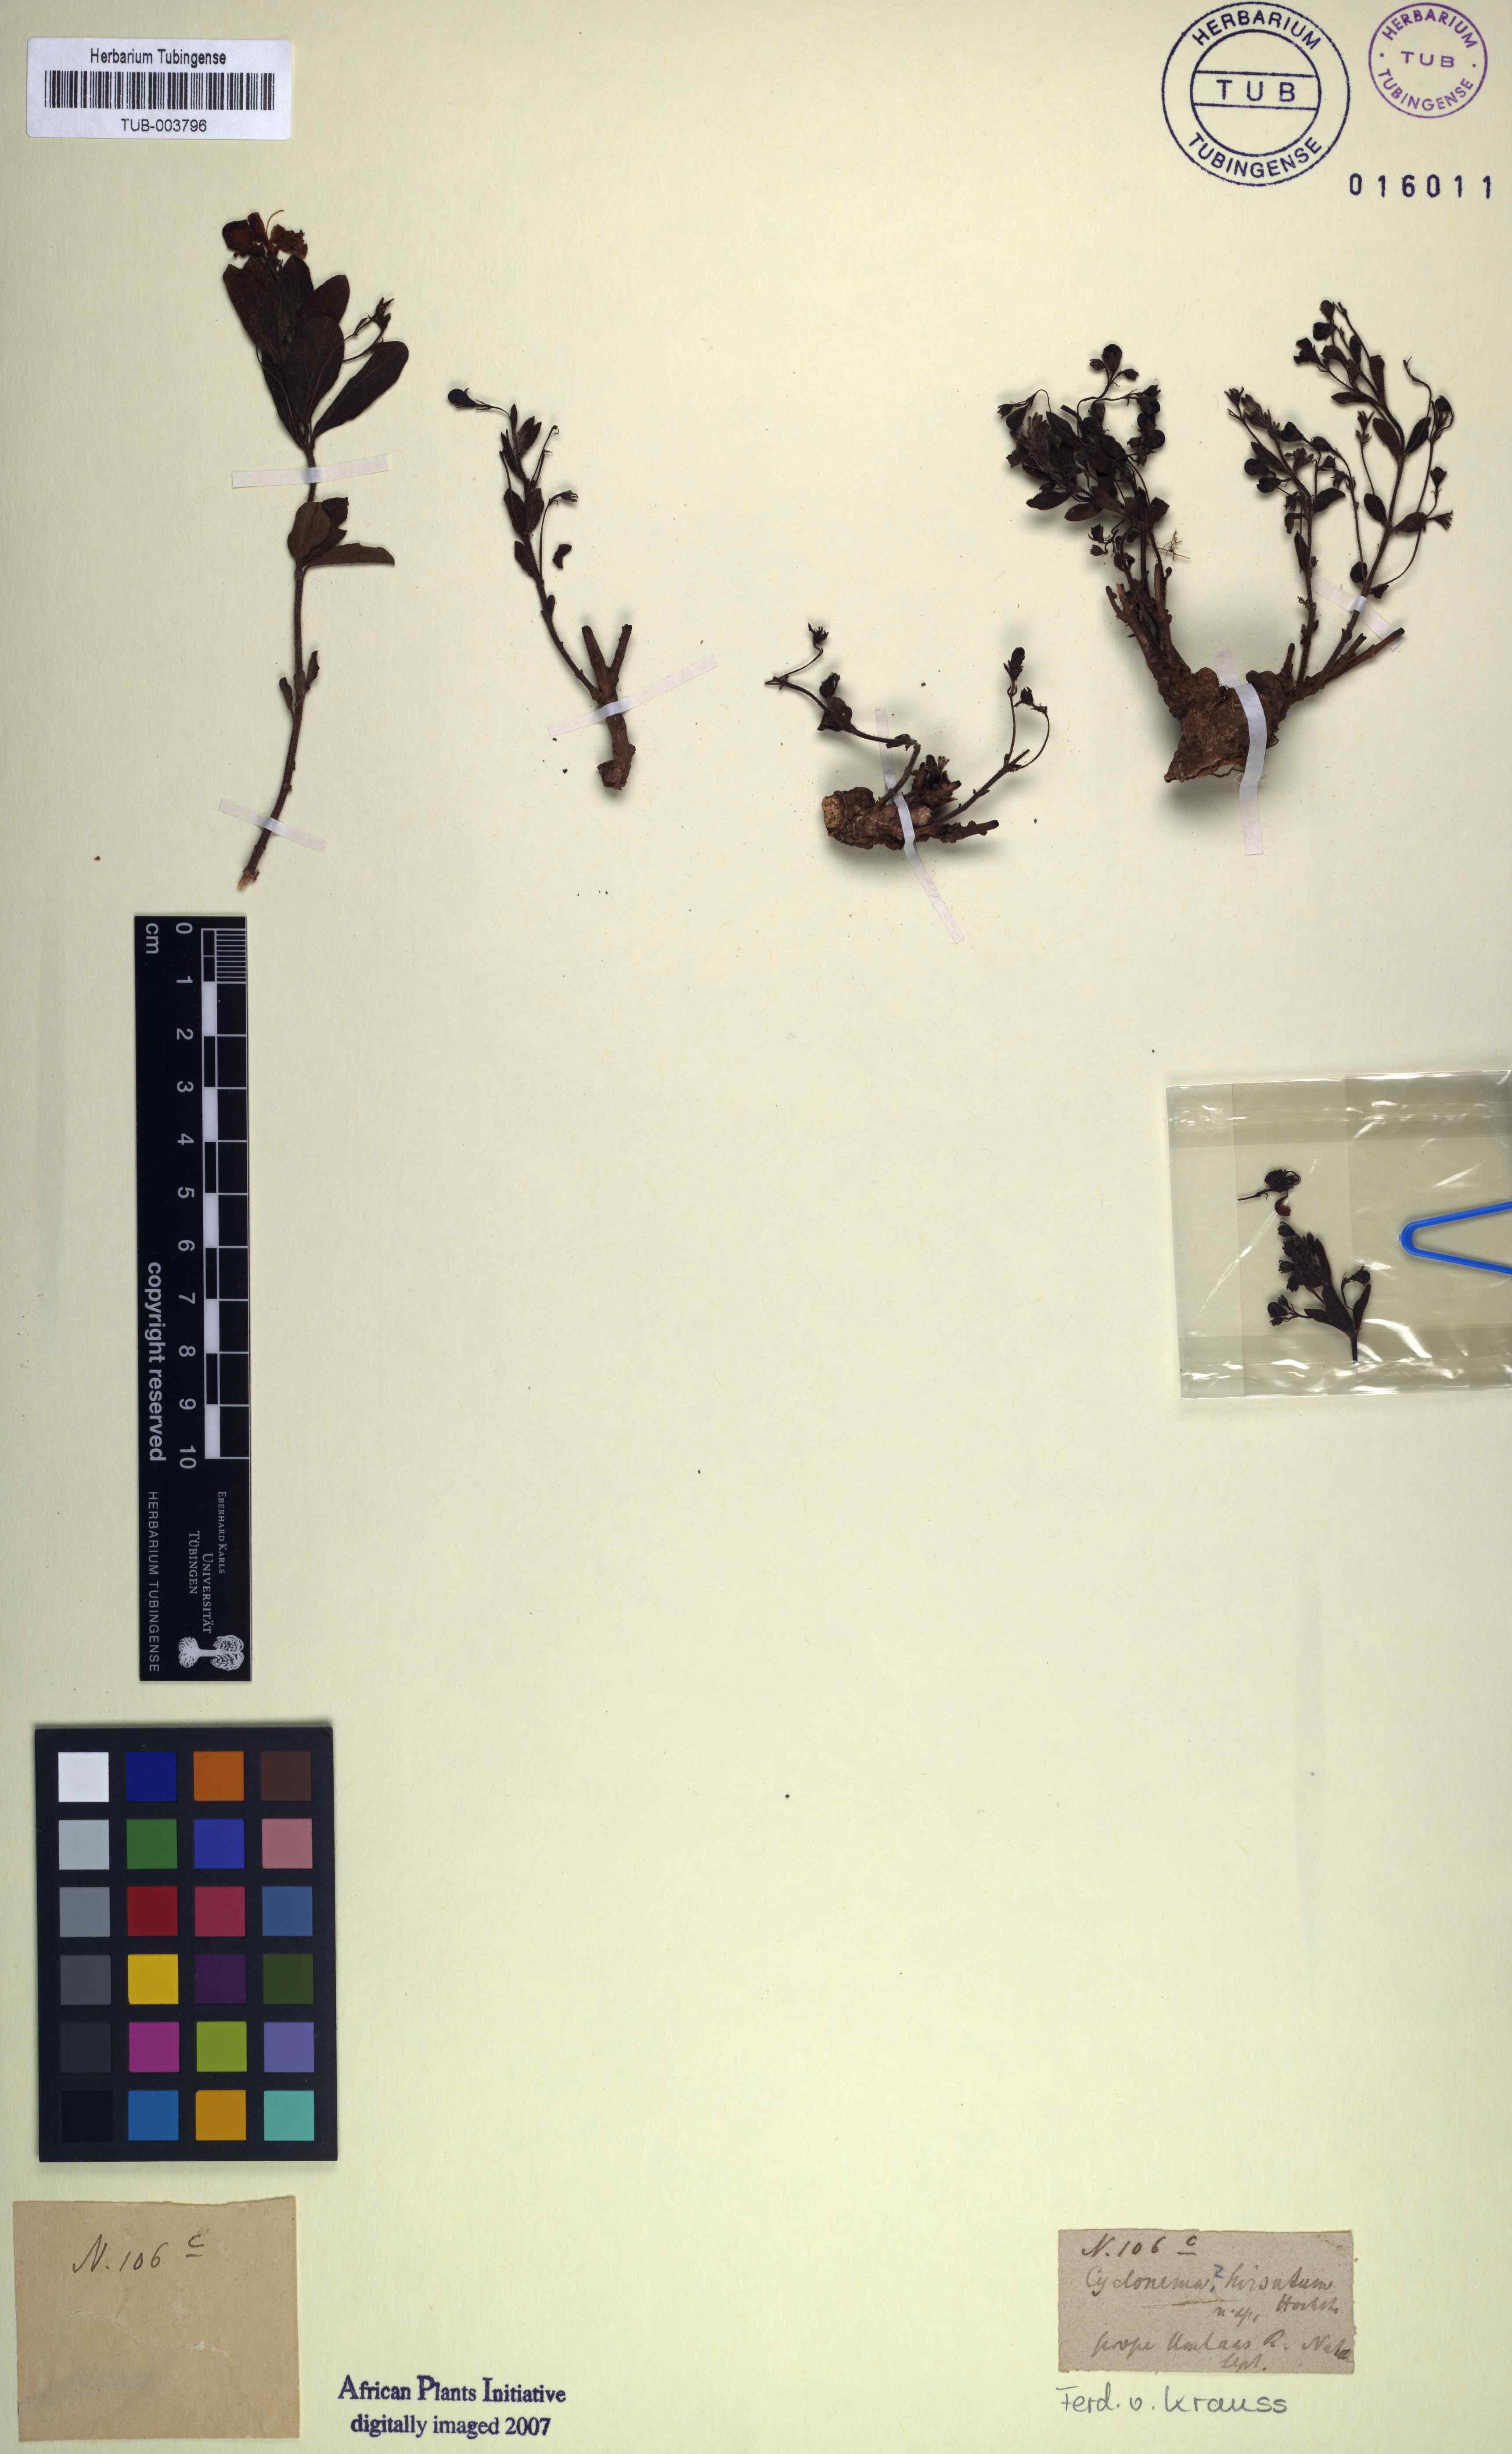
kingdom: Plantae
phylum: Tracheophyta
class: Magnoliopsida
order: Lamiales
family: Lamiaceae
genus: Clerodendrum
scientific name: Clerodendrum umbellatum
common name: Umbel clerodendrum
